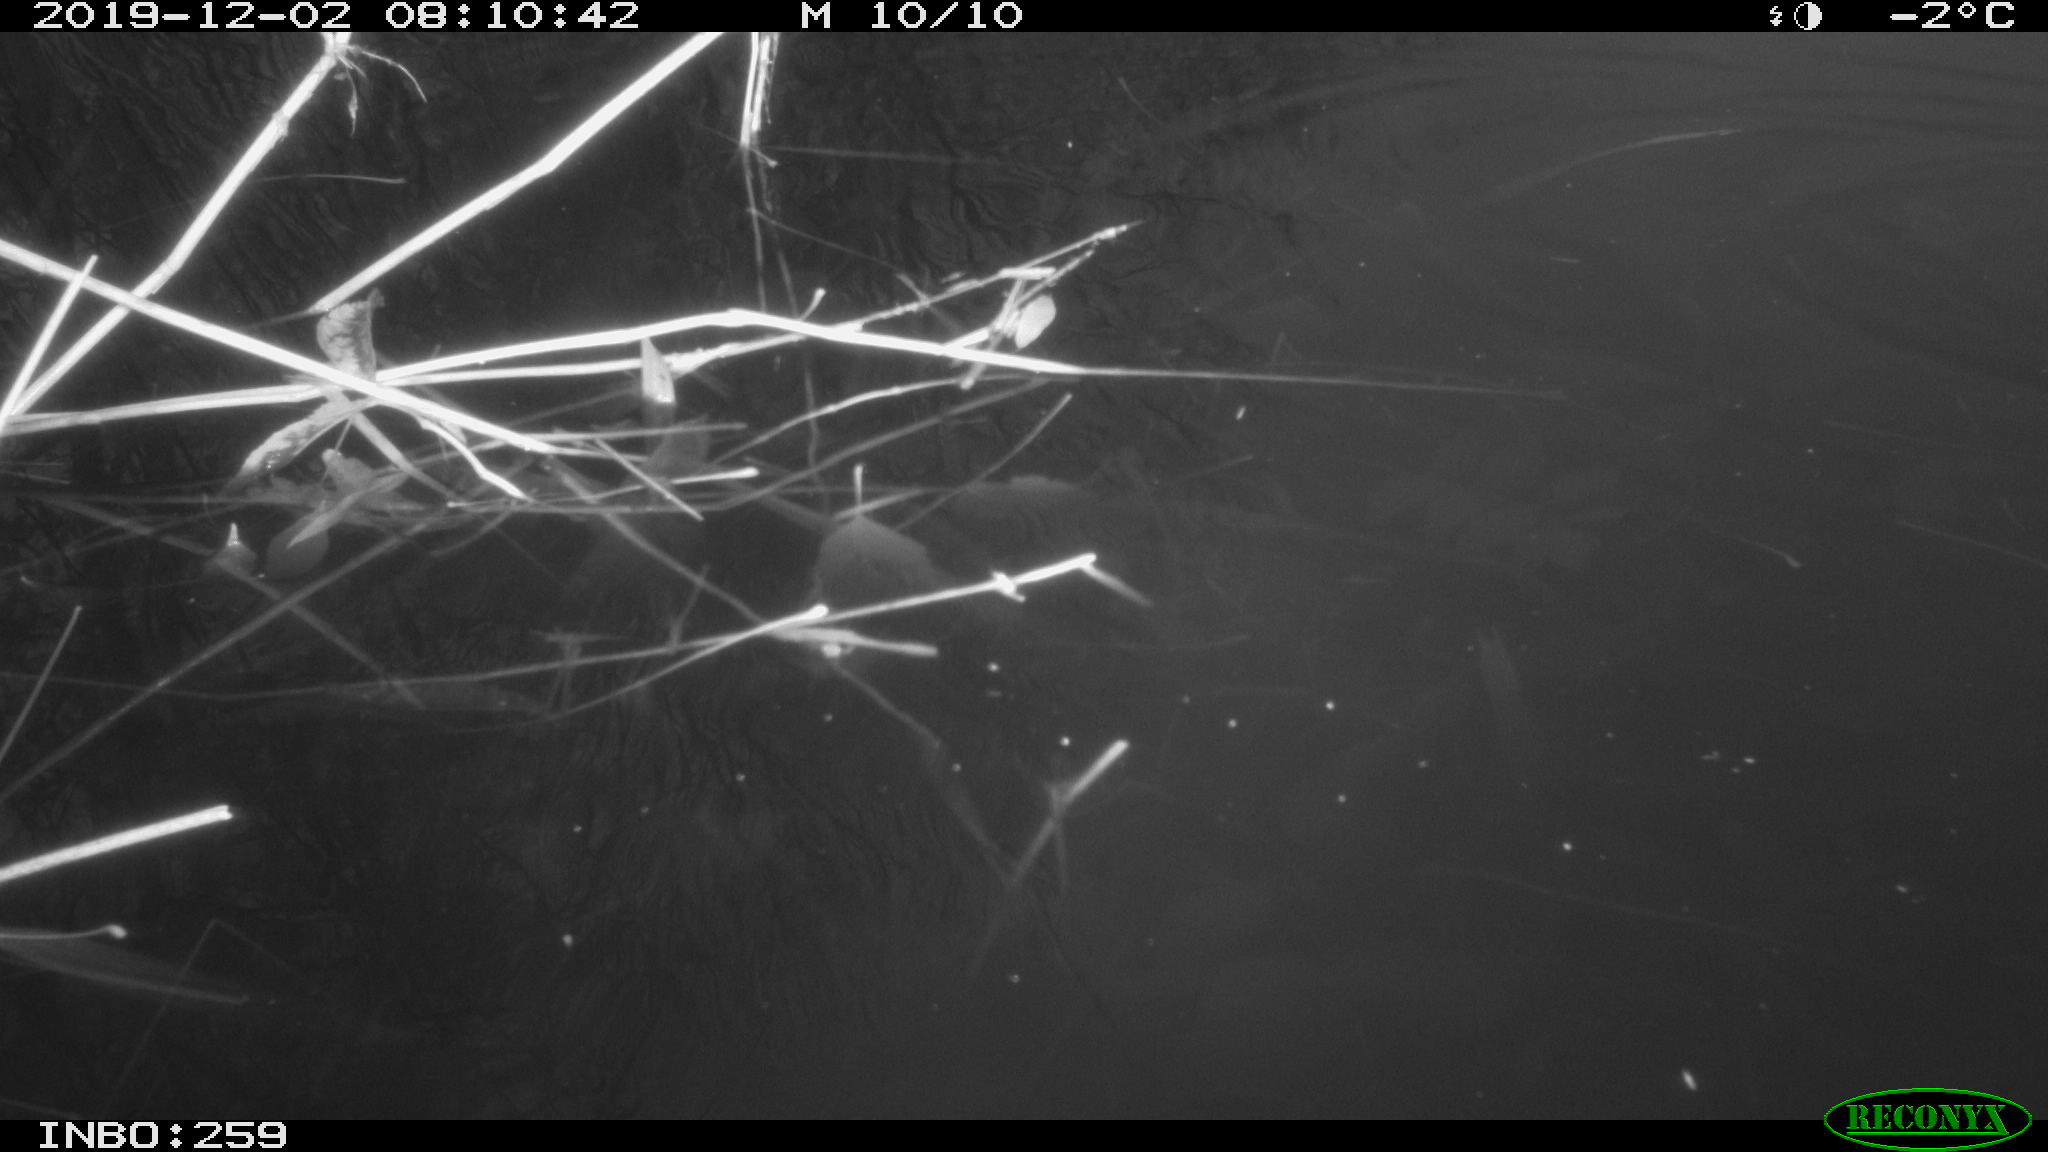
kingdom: Animalia
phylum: Chordata
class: Aves
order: Gruiformes
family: Rallidae
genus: Gallinula
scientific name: Gallinula chloropus
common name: Common moorhen
